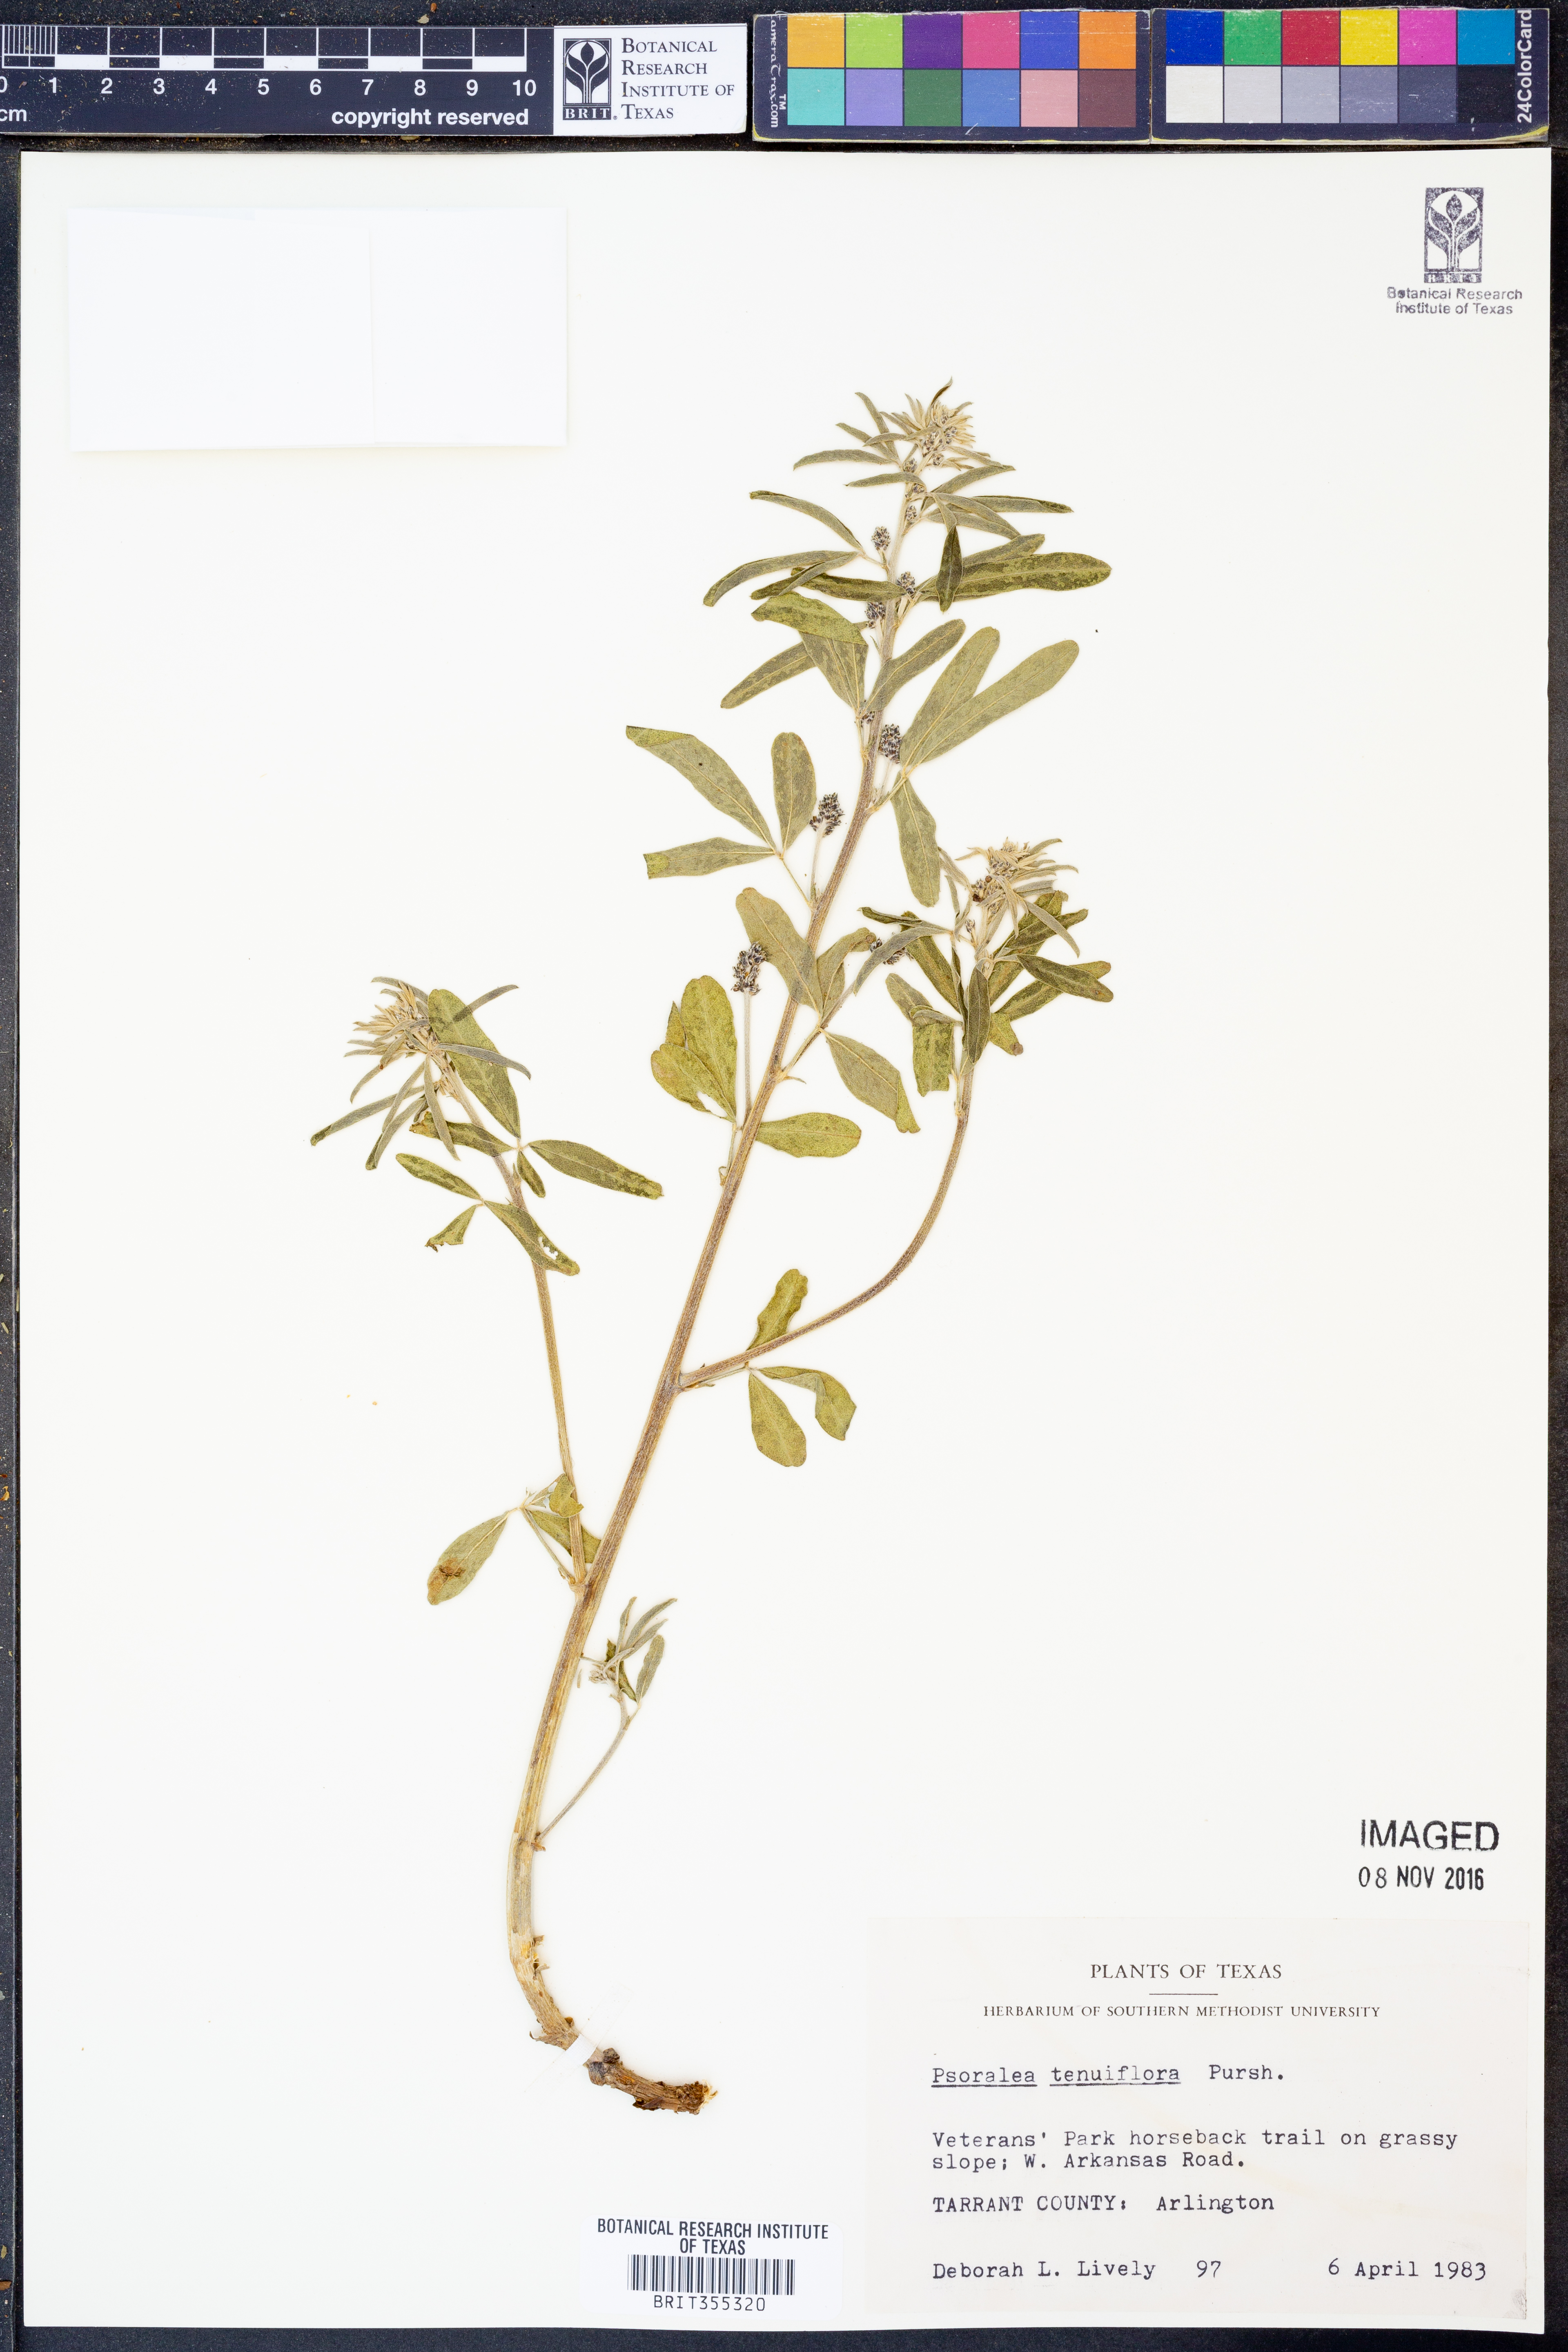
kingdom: Plantae
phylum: Tracheophyta
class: Magnoliopsida
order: Fabales
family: Fabaceae
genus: Pediomelum
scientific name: Pediomelum tenuiflorum
